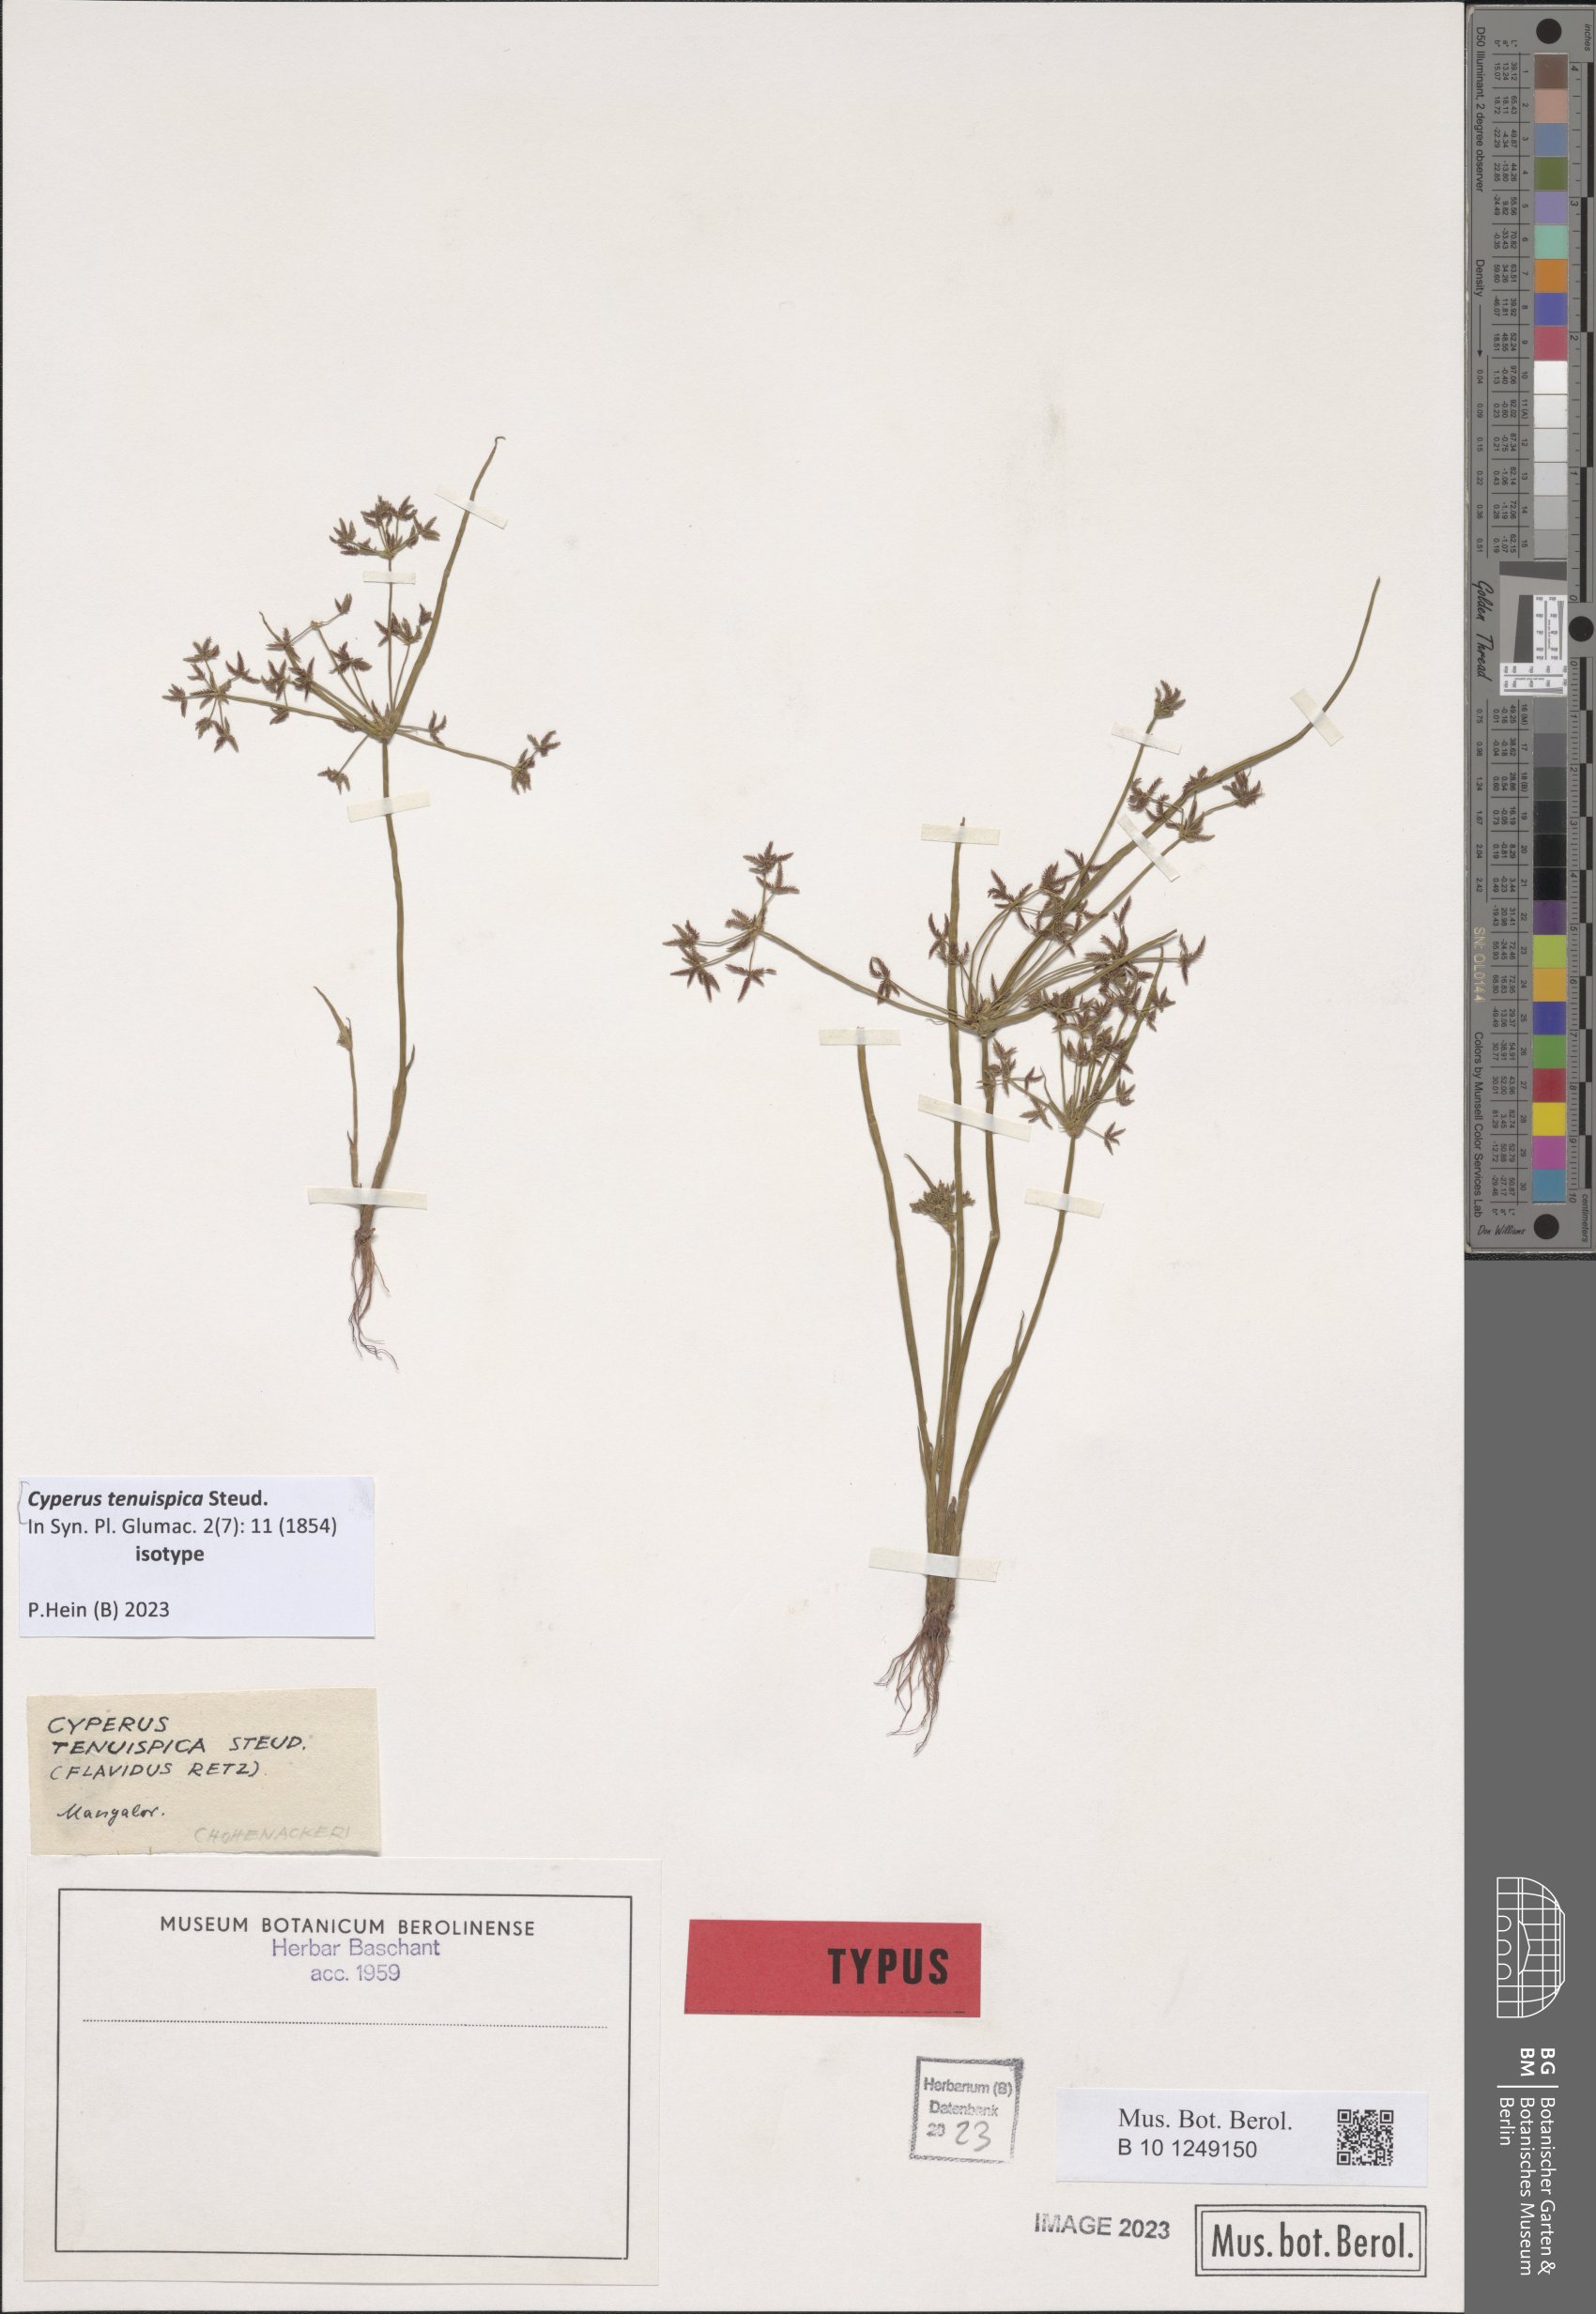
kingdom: Plantae
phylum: Tracheophyta
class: Liliopsida
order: Poales
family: Cyperaceae
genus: Cyperus
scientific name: Cyperus tenuispica
